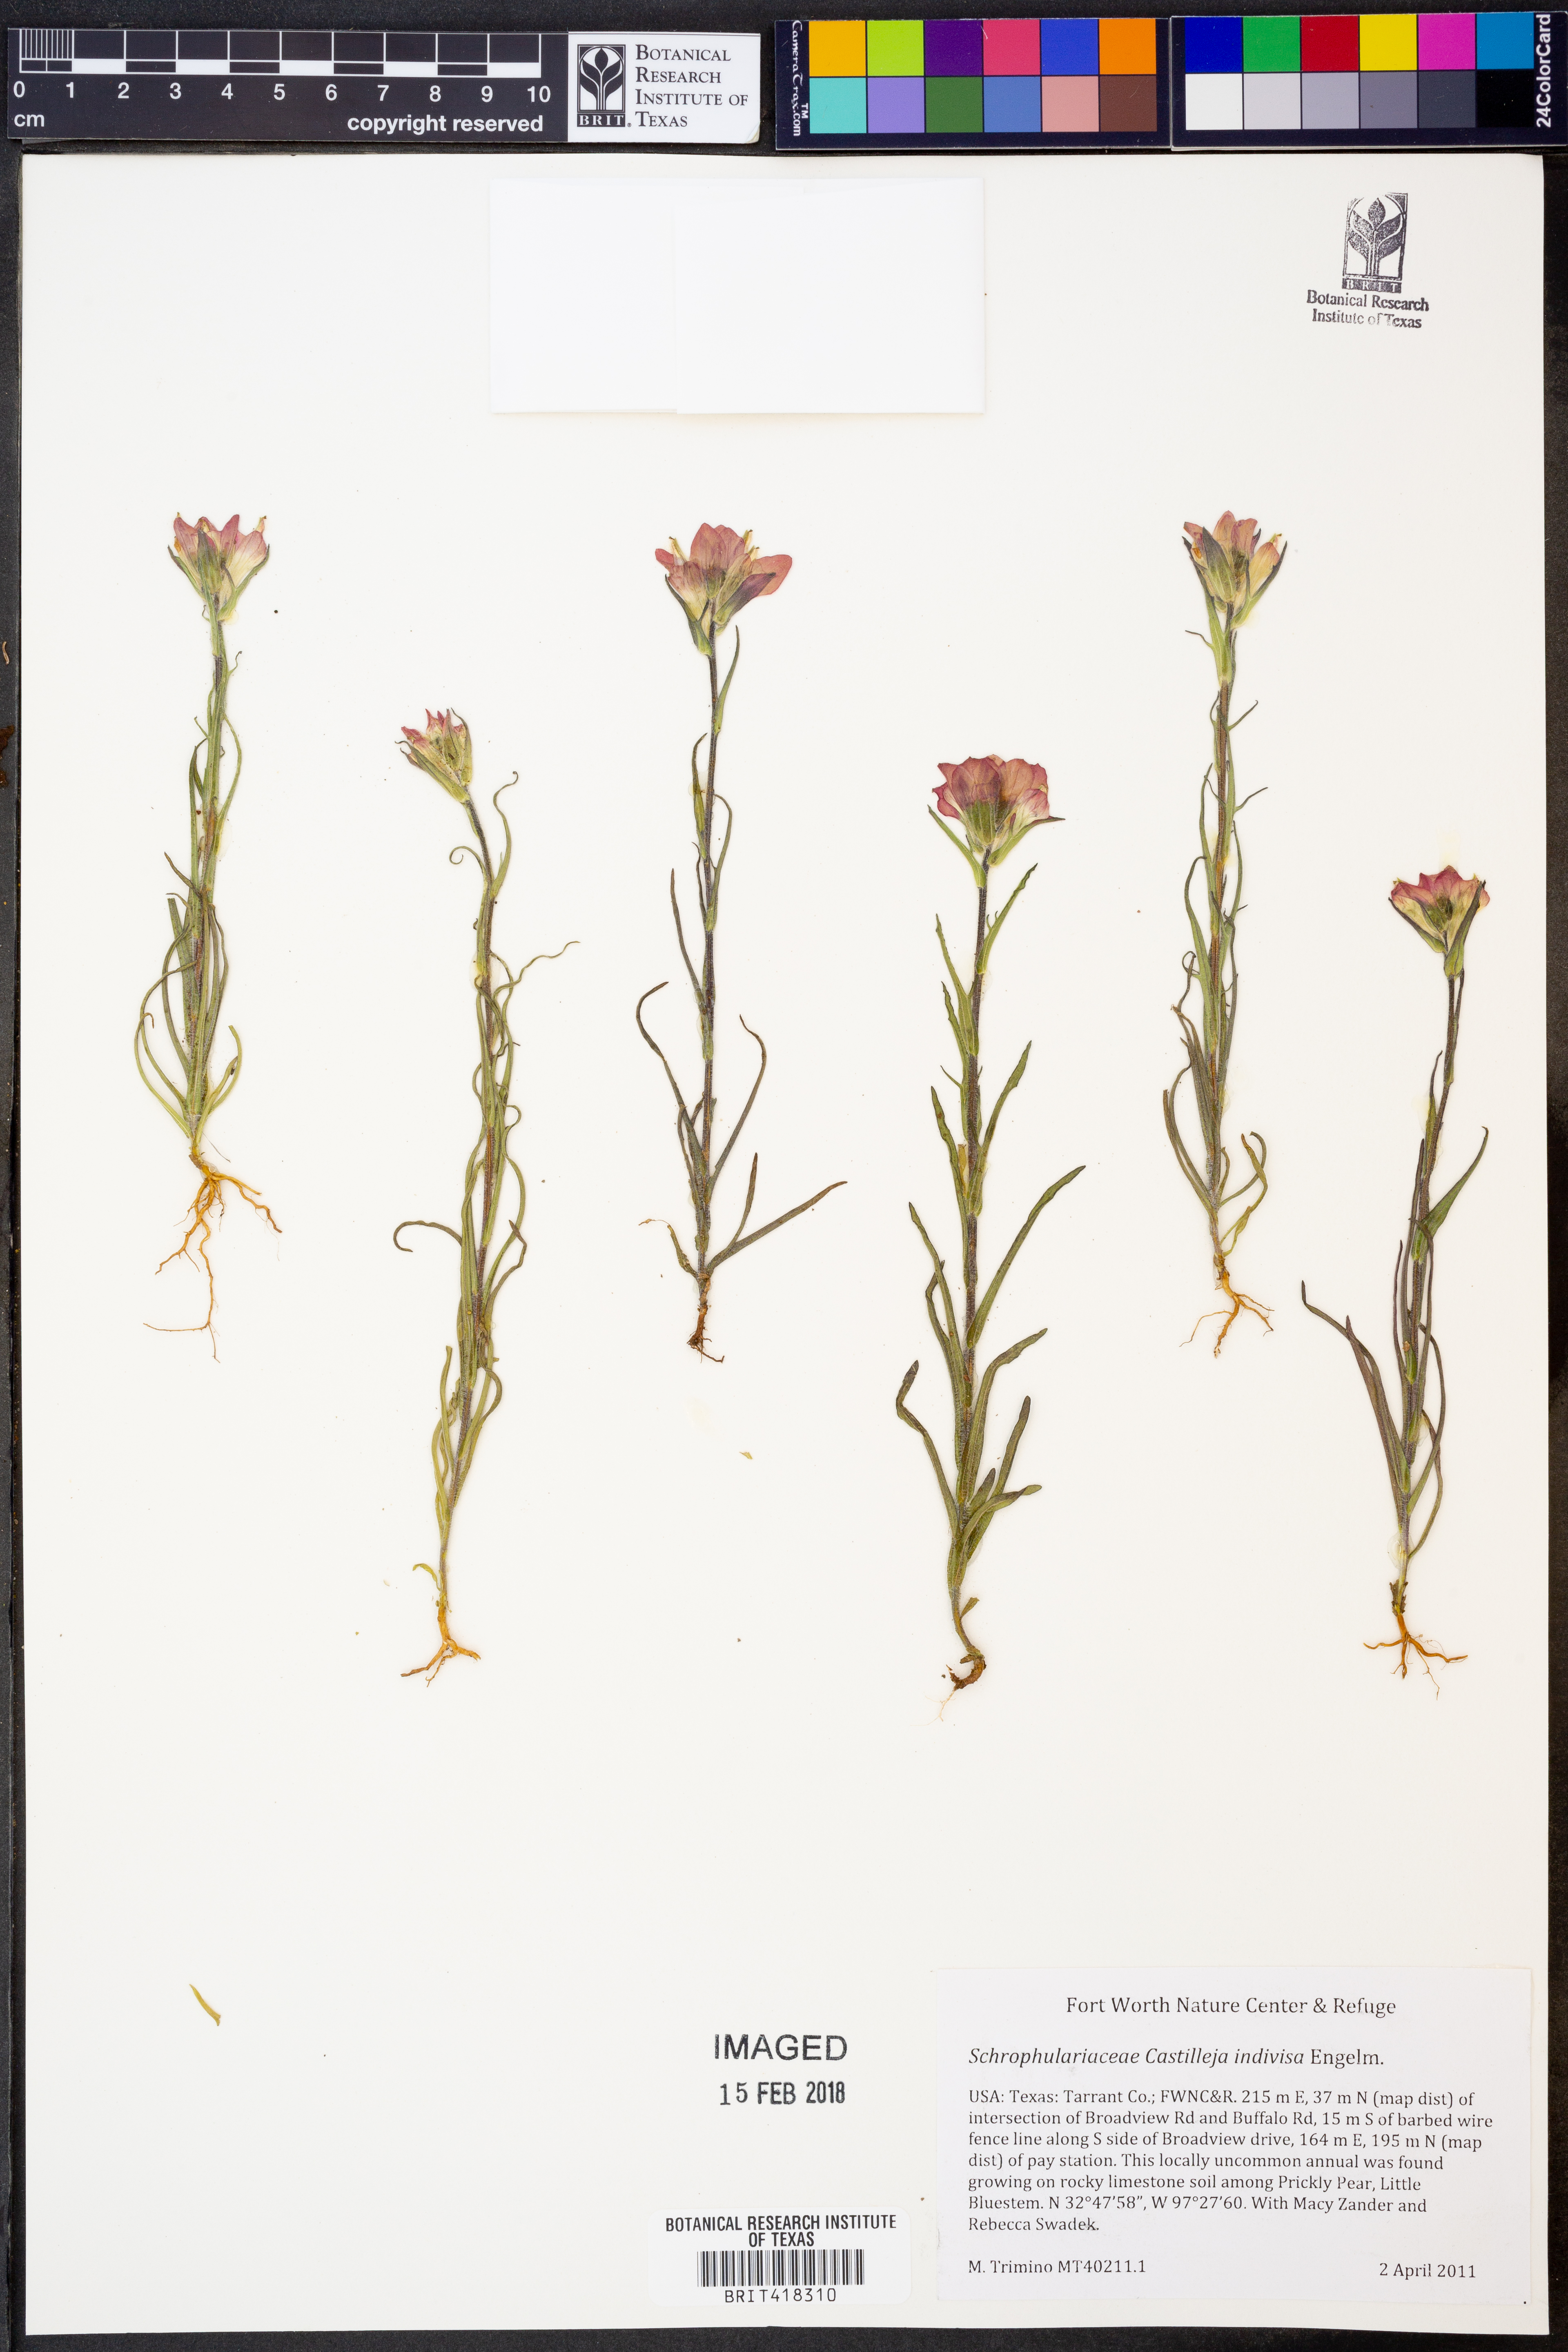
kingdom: Plantae
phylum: Tracheophyta
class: Magnoliopsida
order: Lamiales
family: Orobanchaceae
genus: Castilleja
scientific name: Castilleja indivisa
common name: Texas paintbrush
